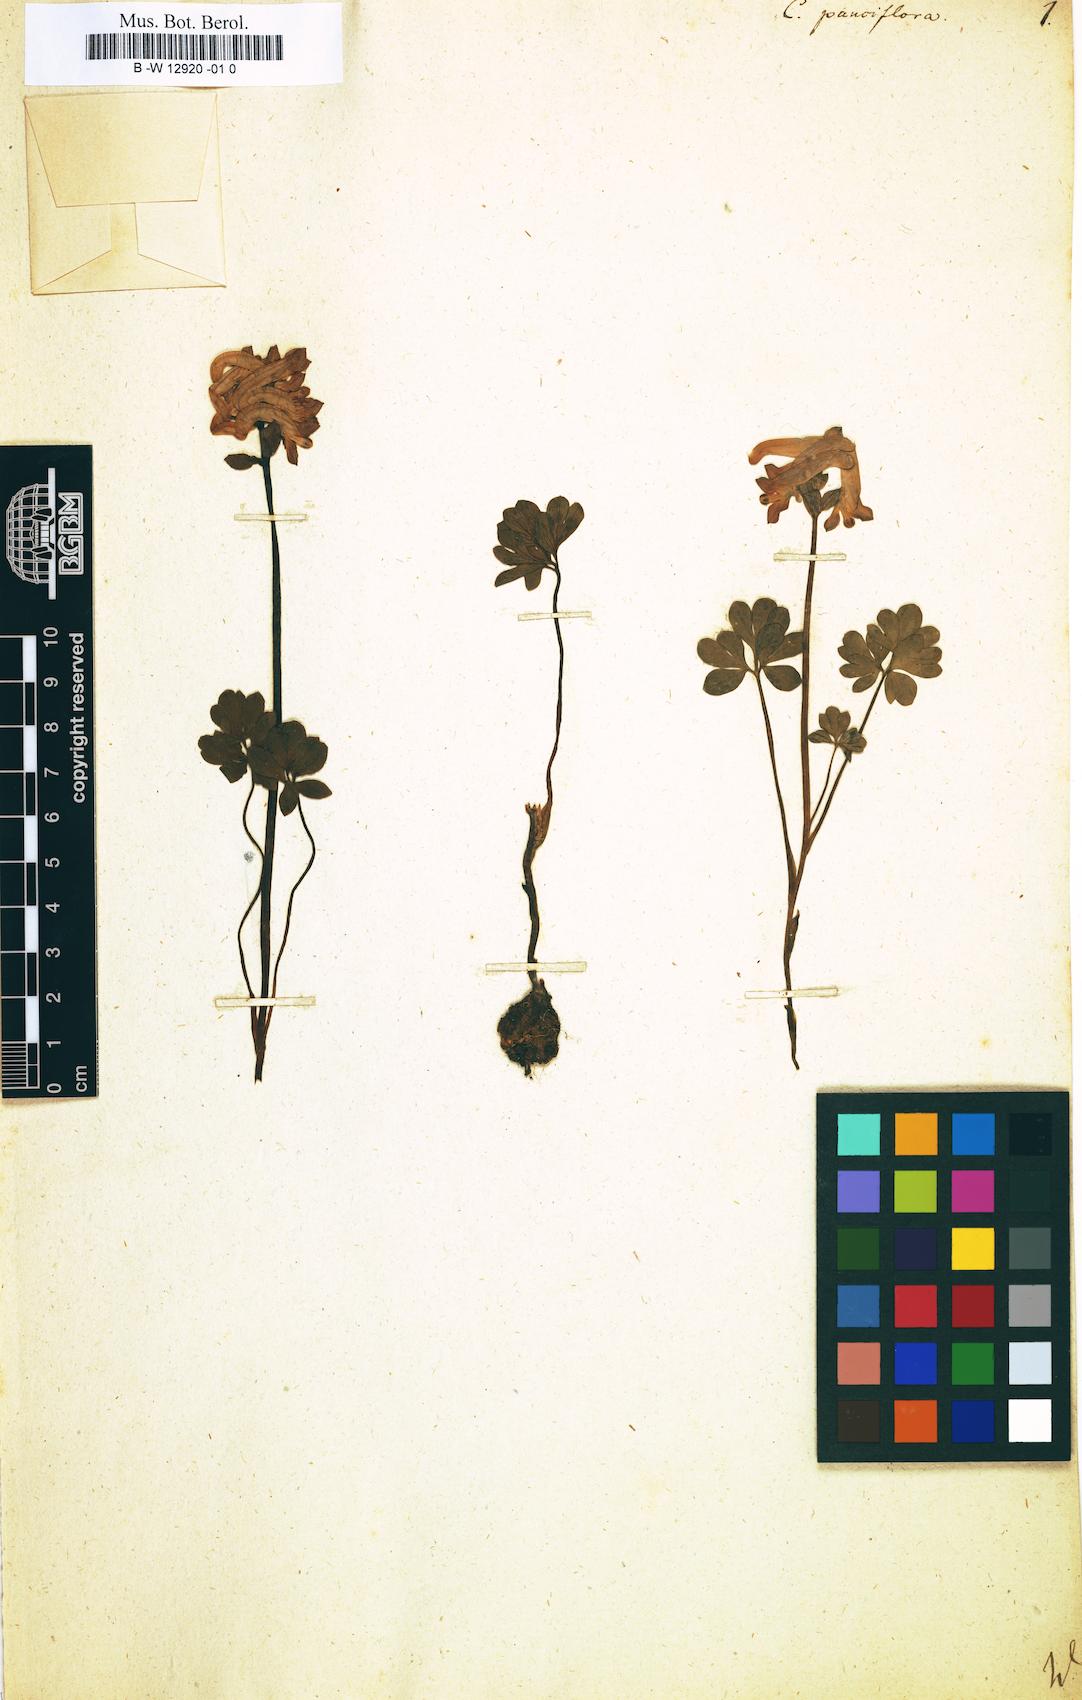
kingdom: Plantae
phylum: Tracheophyta
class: Magnoliopsida
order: Ranunculales
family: Papaveraceae
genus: Corydalis
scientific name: Corydalis pauciflora
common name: Blue corydalis
